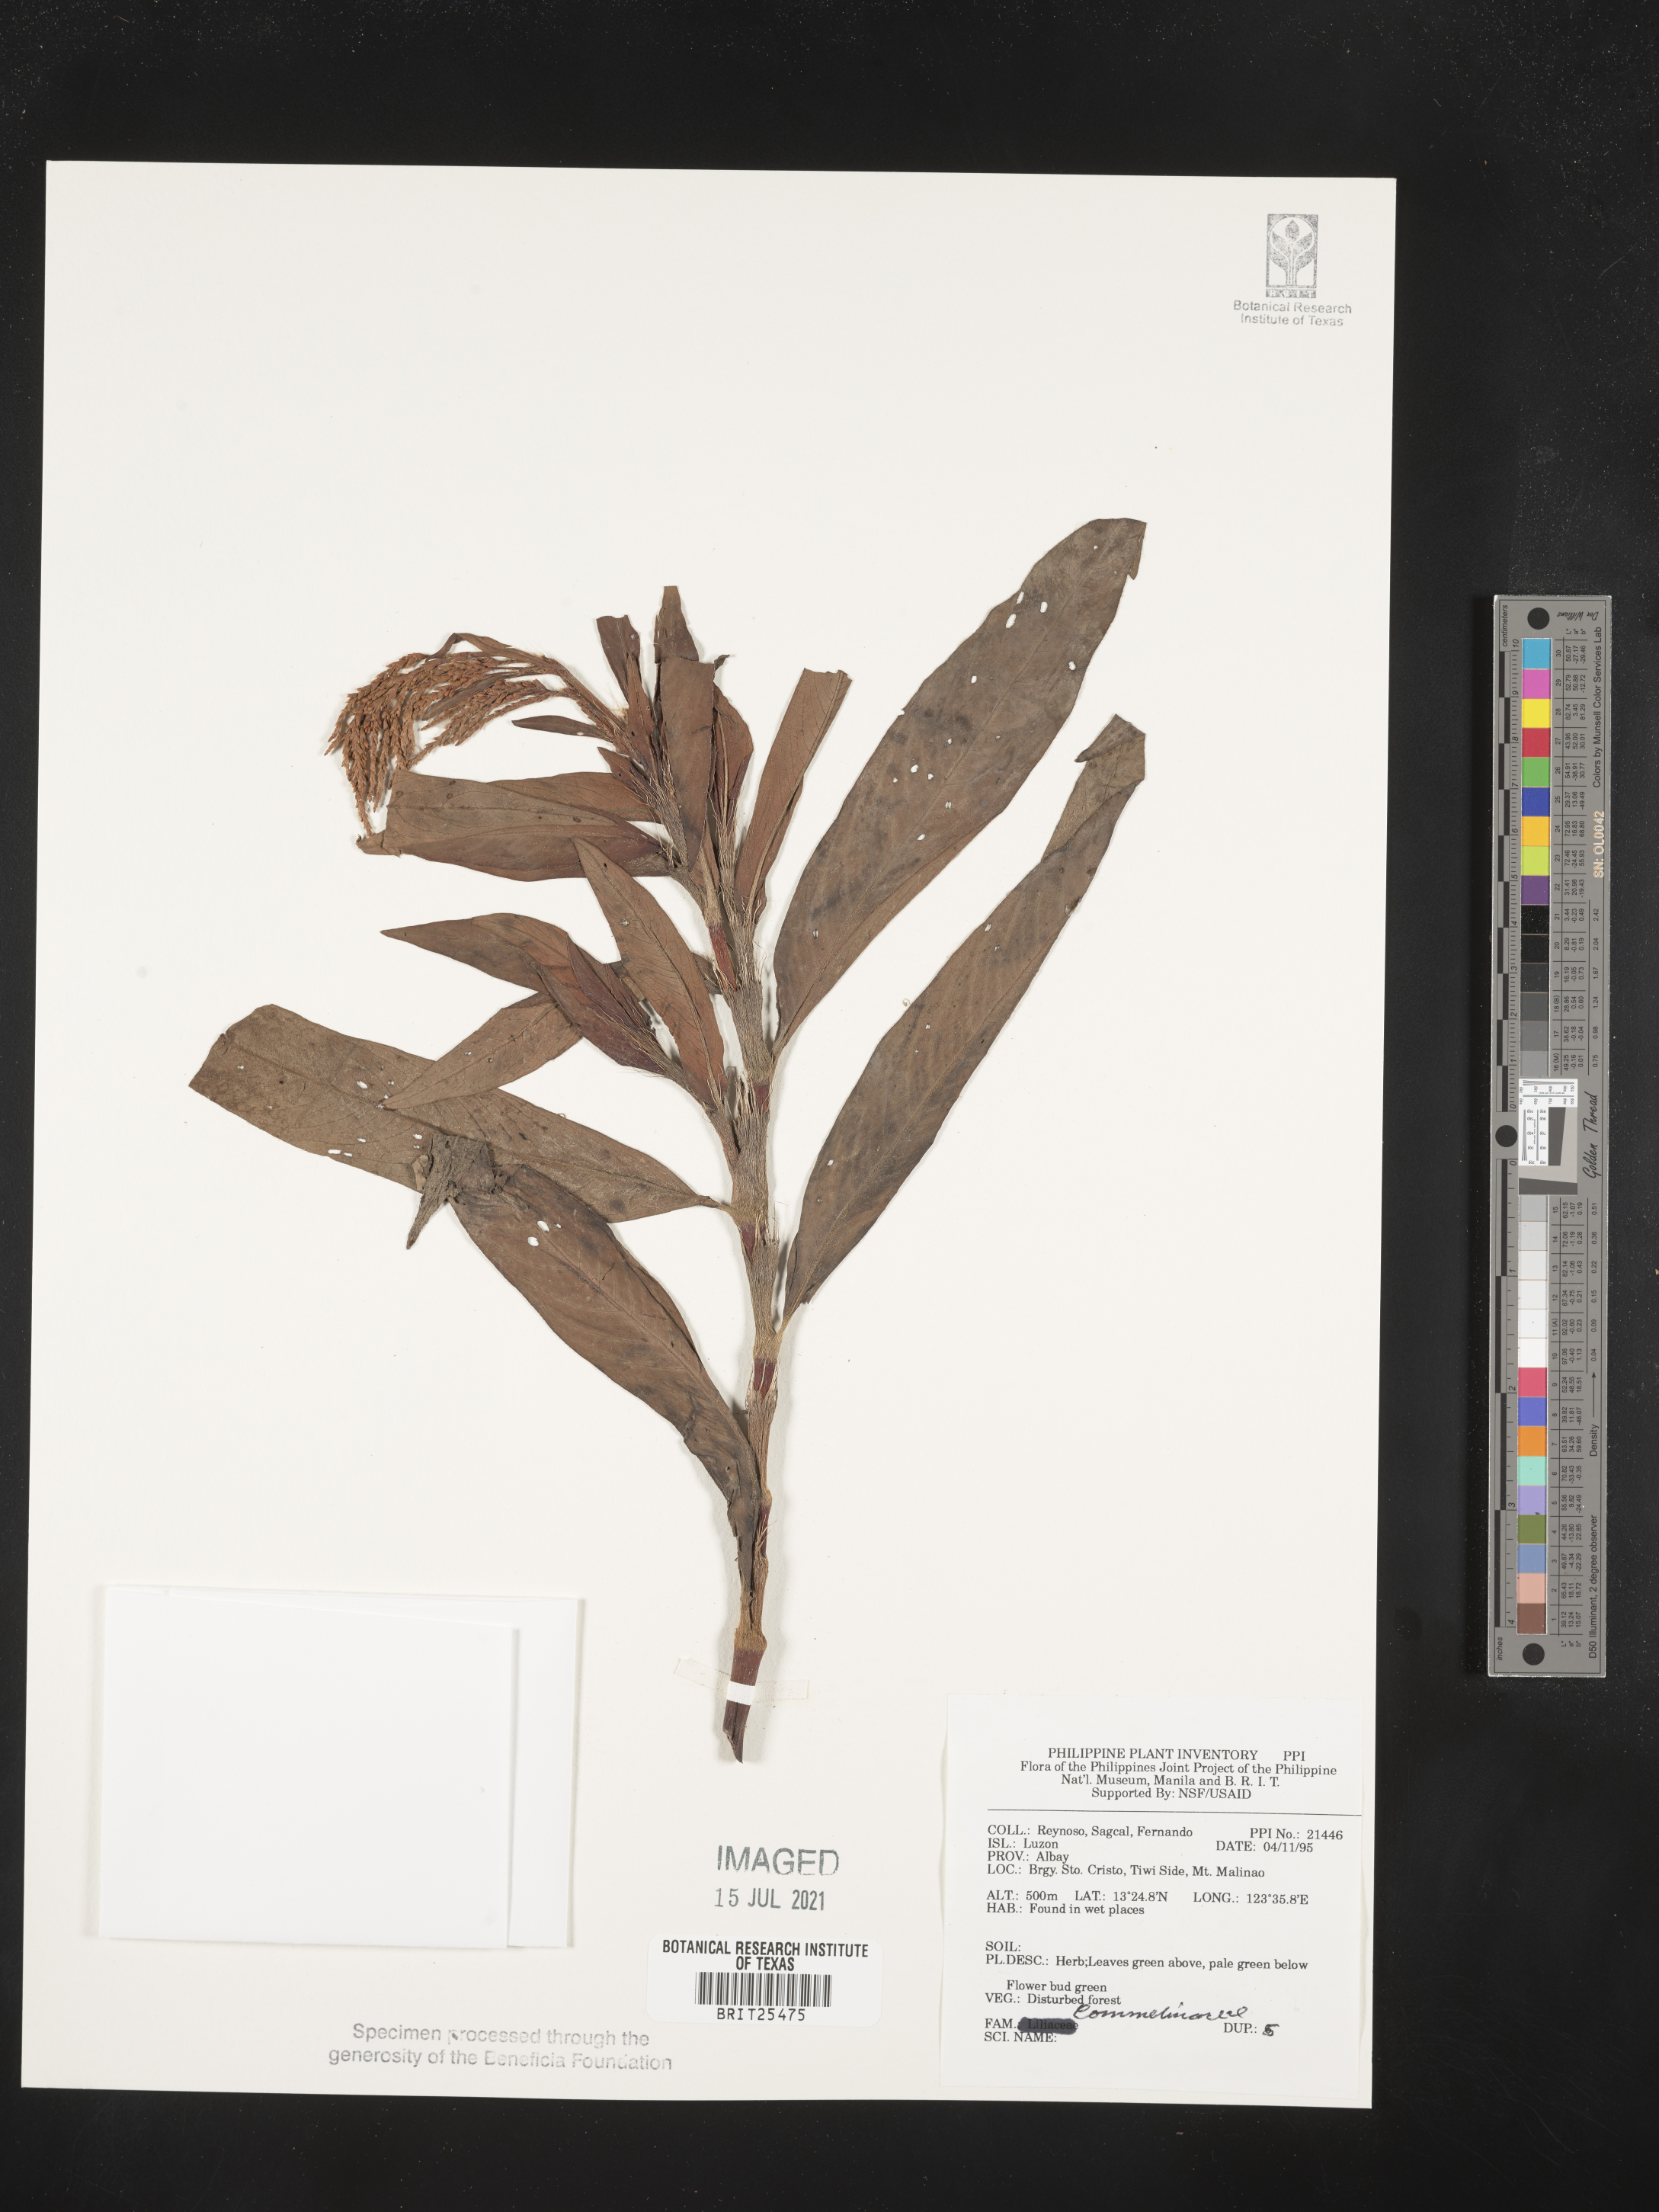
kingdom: Plantae
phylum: Tracheophyta
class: Liliopsida
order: Commelinales
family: Commelinaceae
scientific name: Commelinaceae
